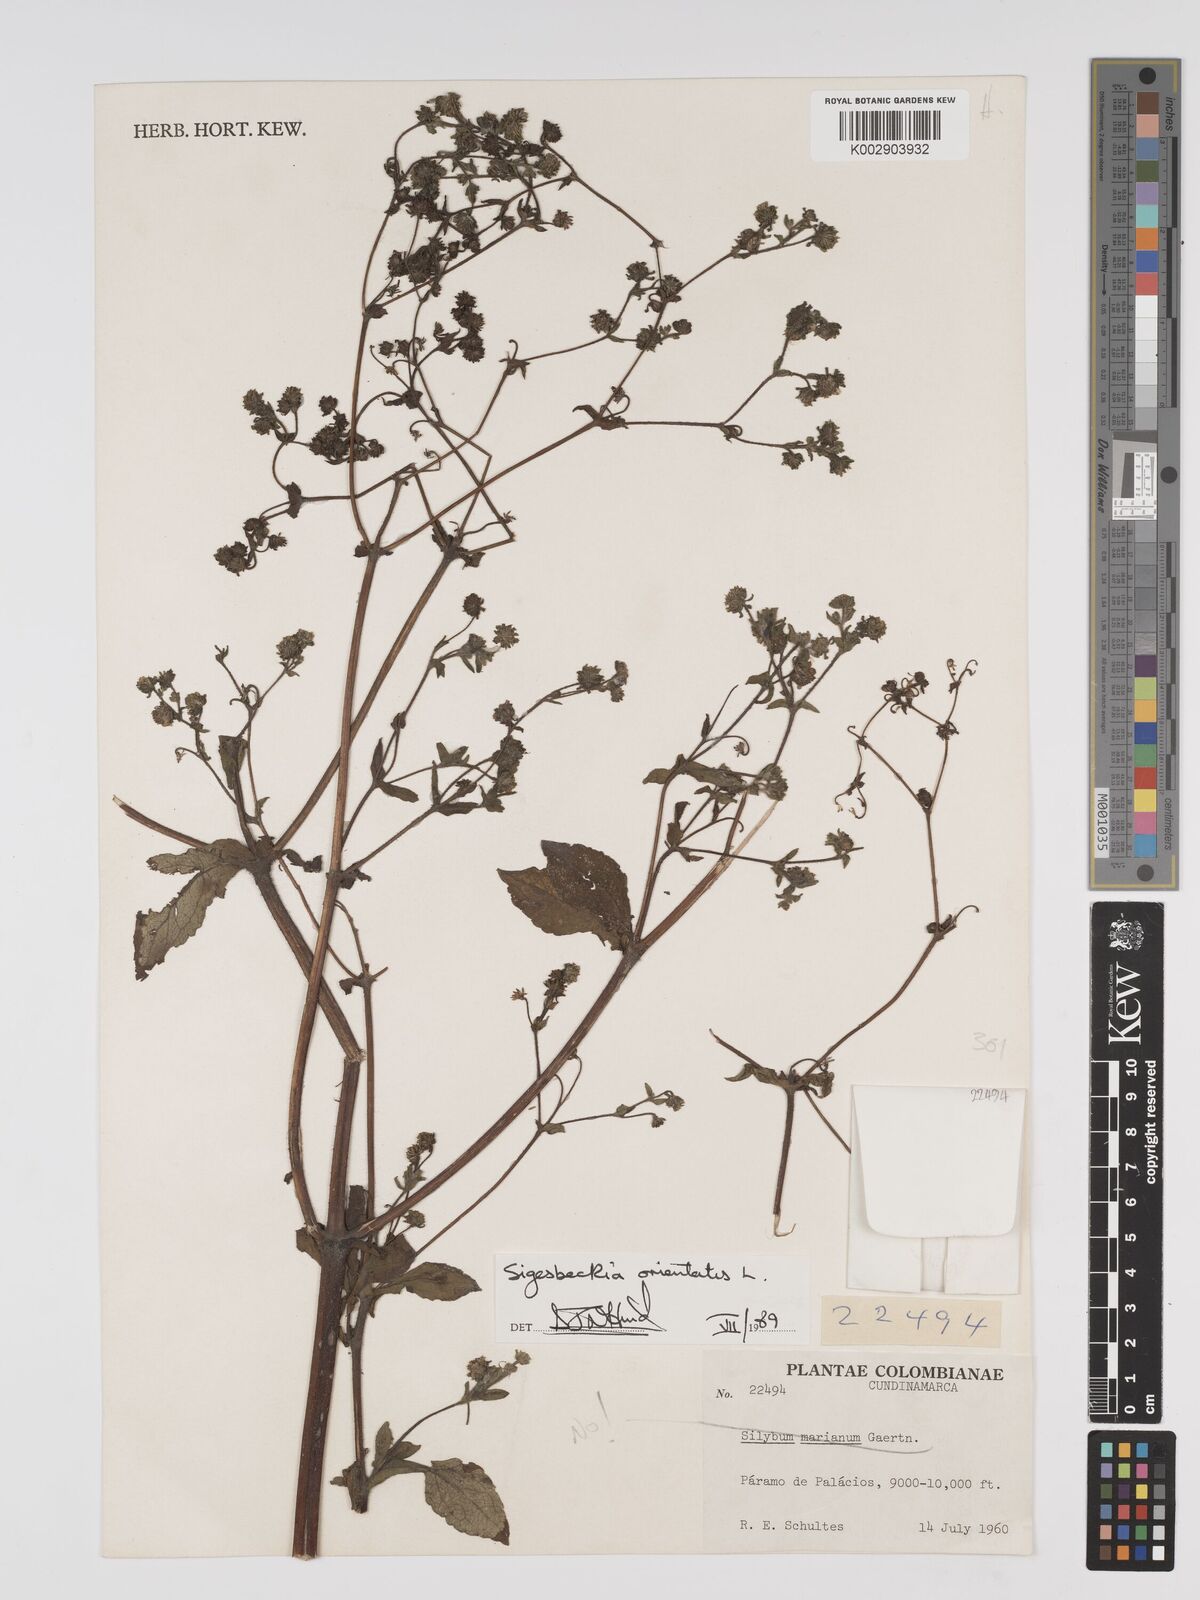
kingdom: Plantae
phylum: Tracheophyta
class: Magnoliopsida
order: Asterales
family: Asteraceae
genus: Sigesbeckia
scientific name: Sigesbeckia orientalis
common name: Eastern st paul's-wort
